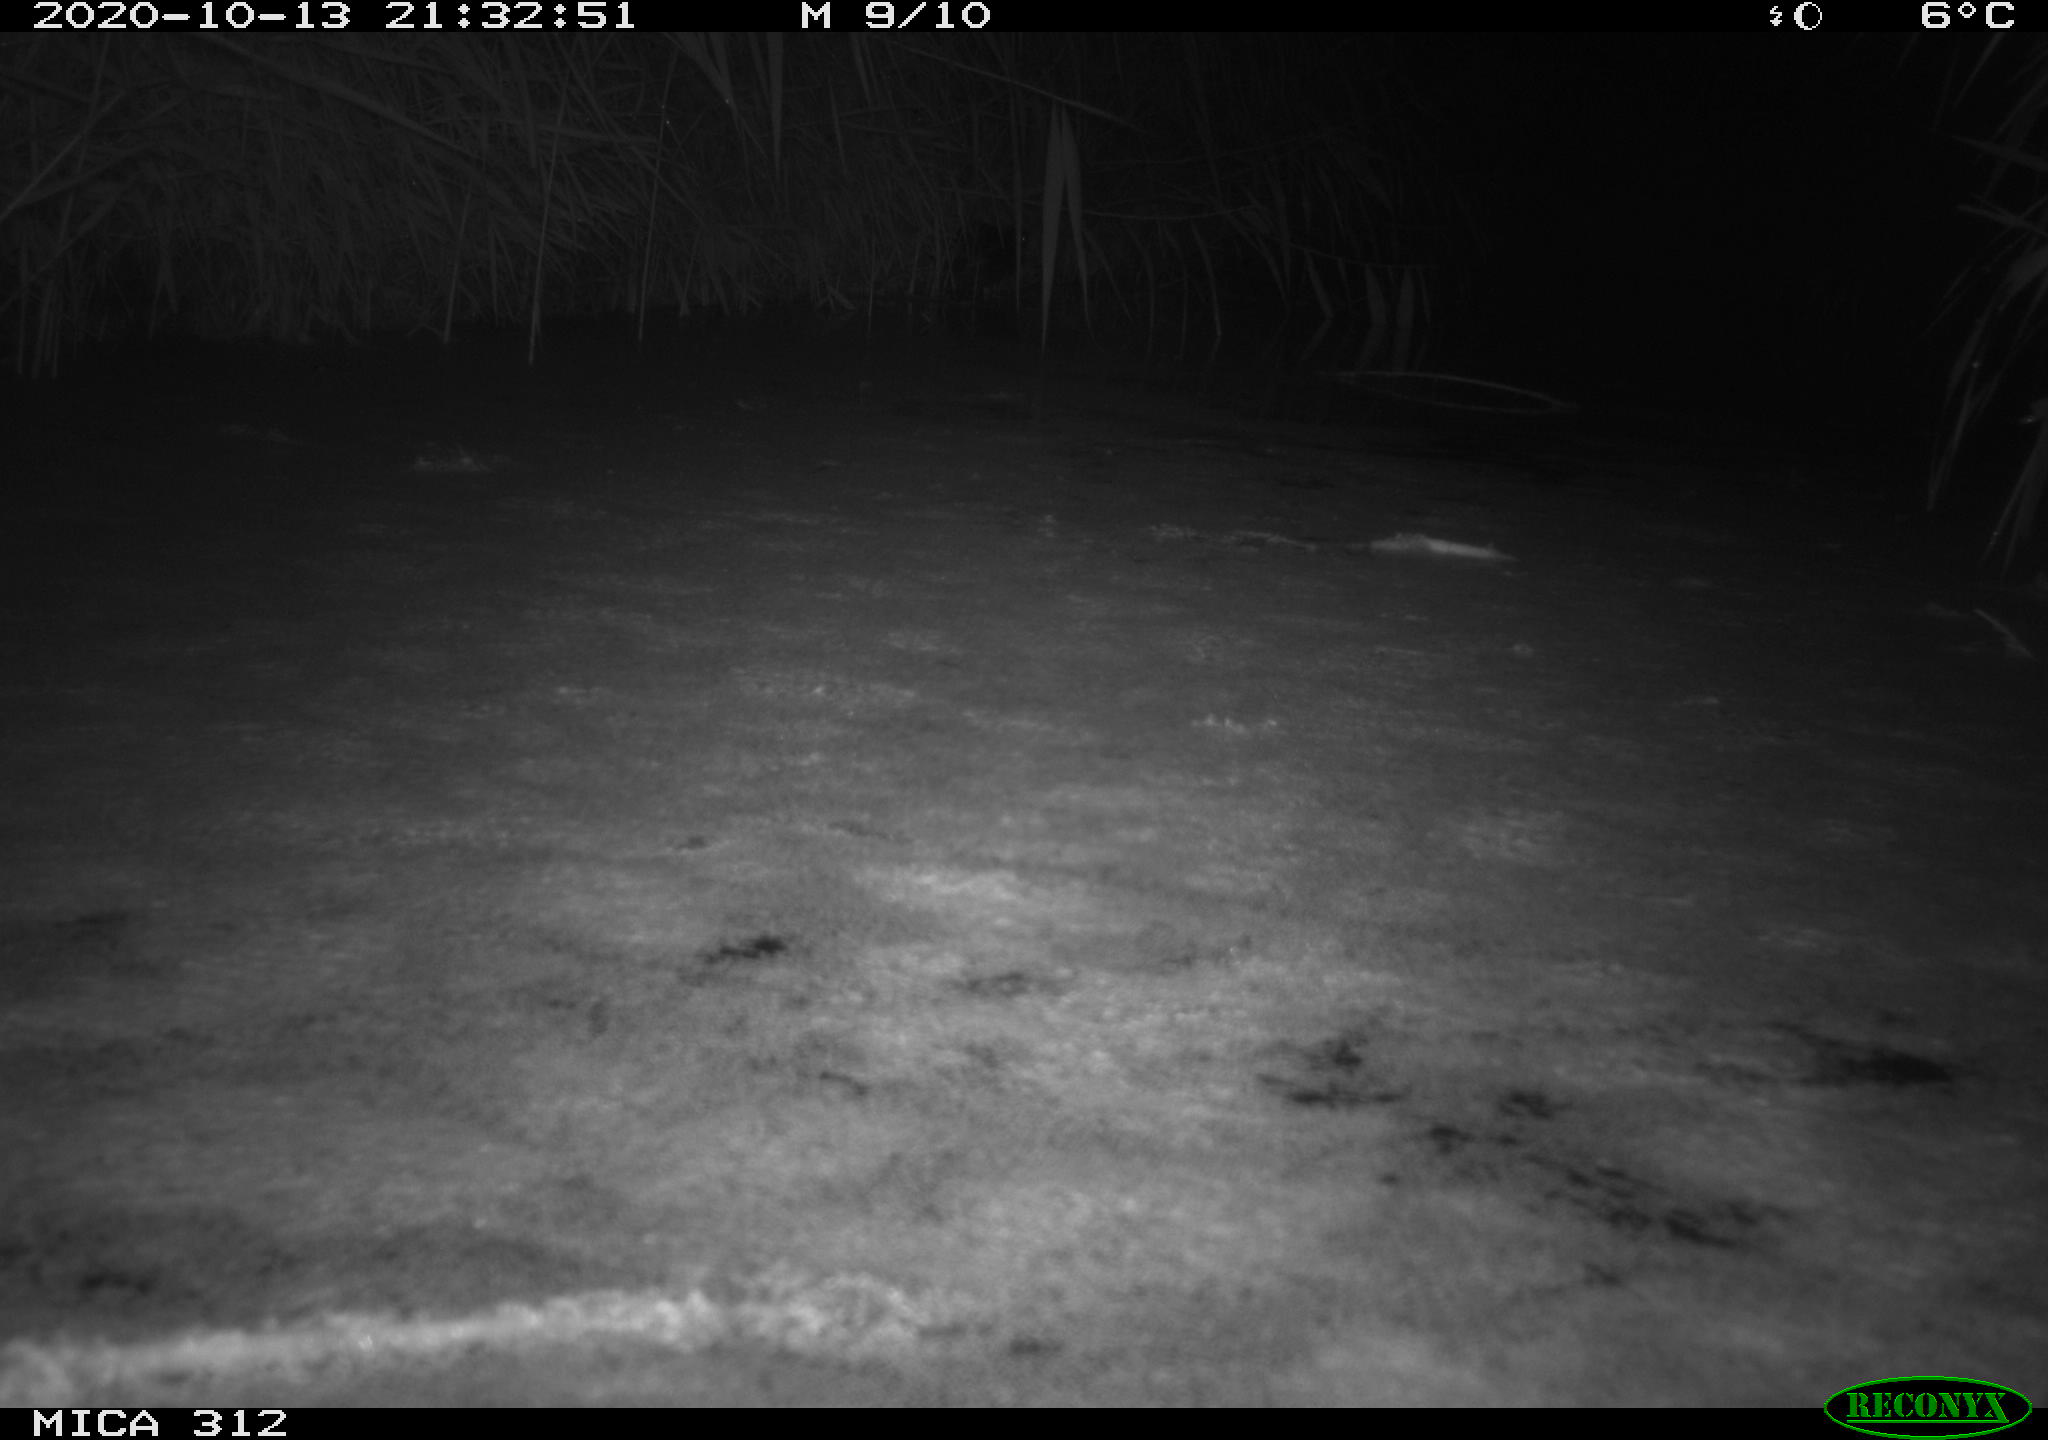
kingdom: Animalia
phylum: Chordata
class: Mammalia
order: Rodentia
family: Muridae
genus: Rattus
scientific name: Rattus norvegicus
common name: Brown rat
